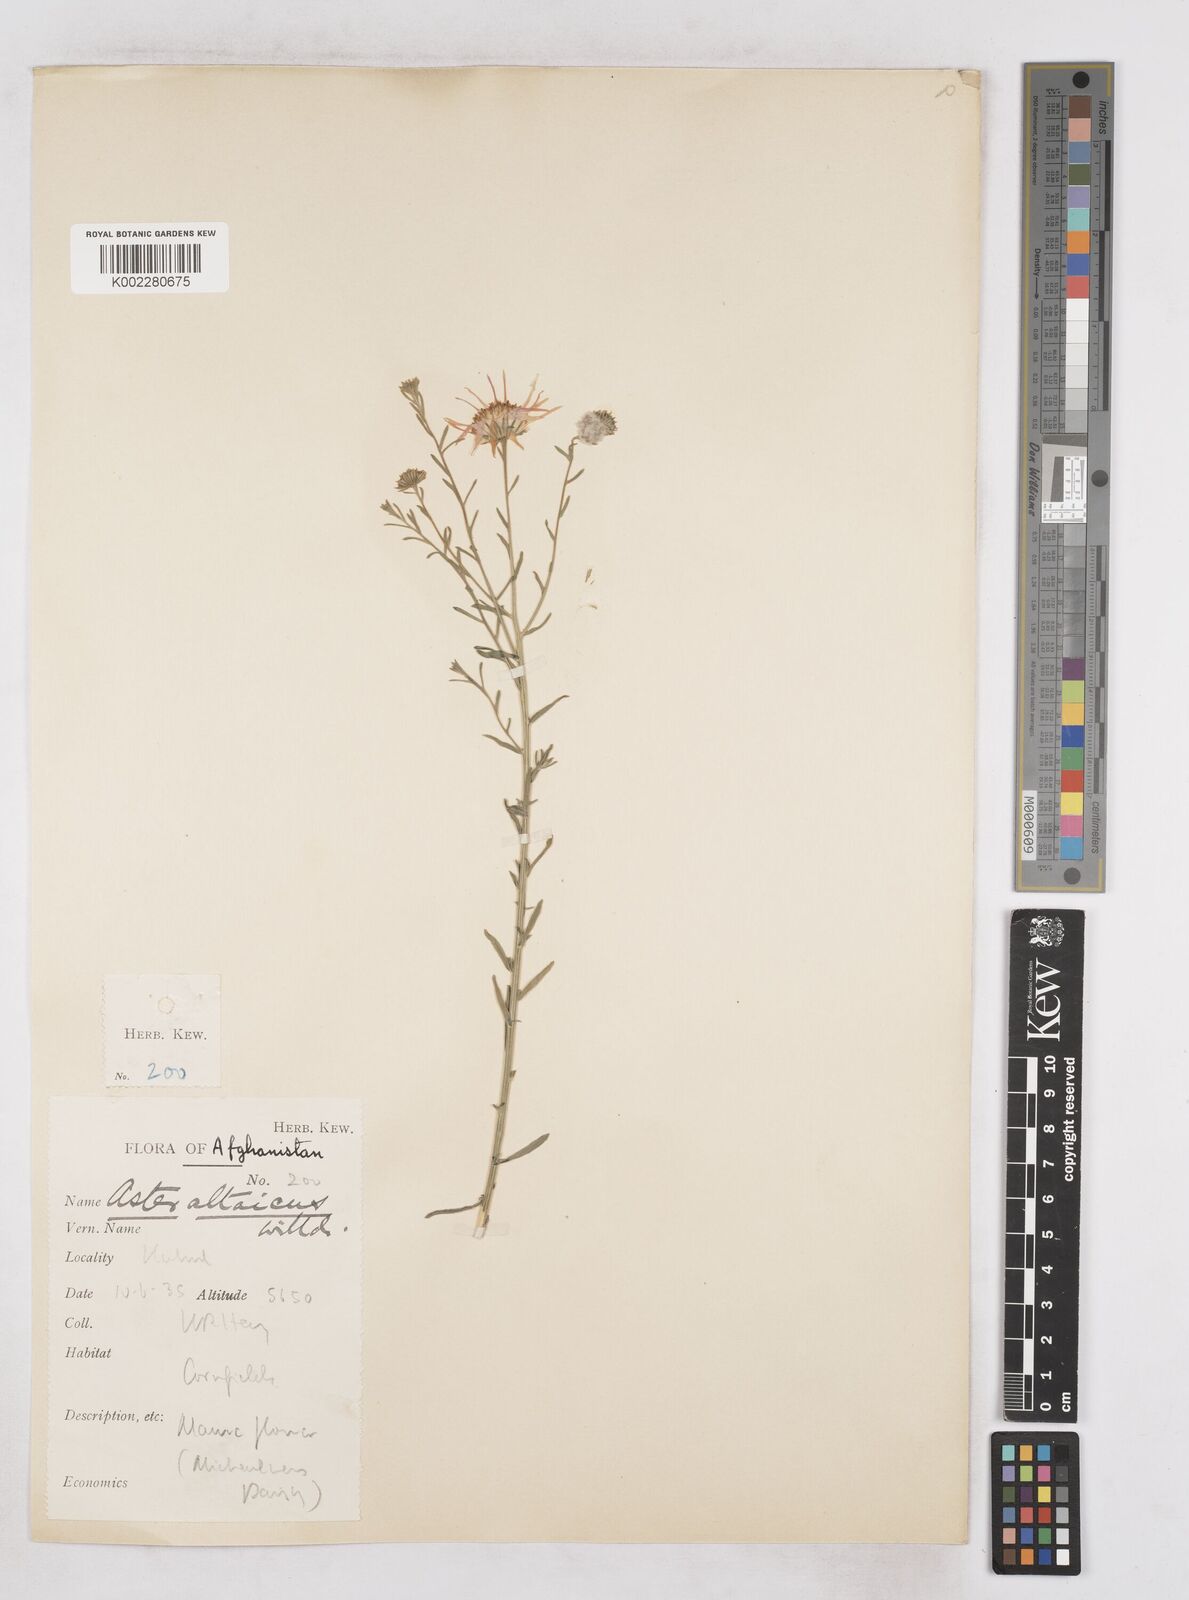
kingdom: Plantae
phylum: Tracheophyta
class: Magnoliopsida
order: Asterales
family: Asteraceae
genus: Heteropappus
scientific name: Heteropappus altaicus
